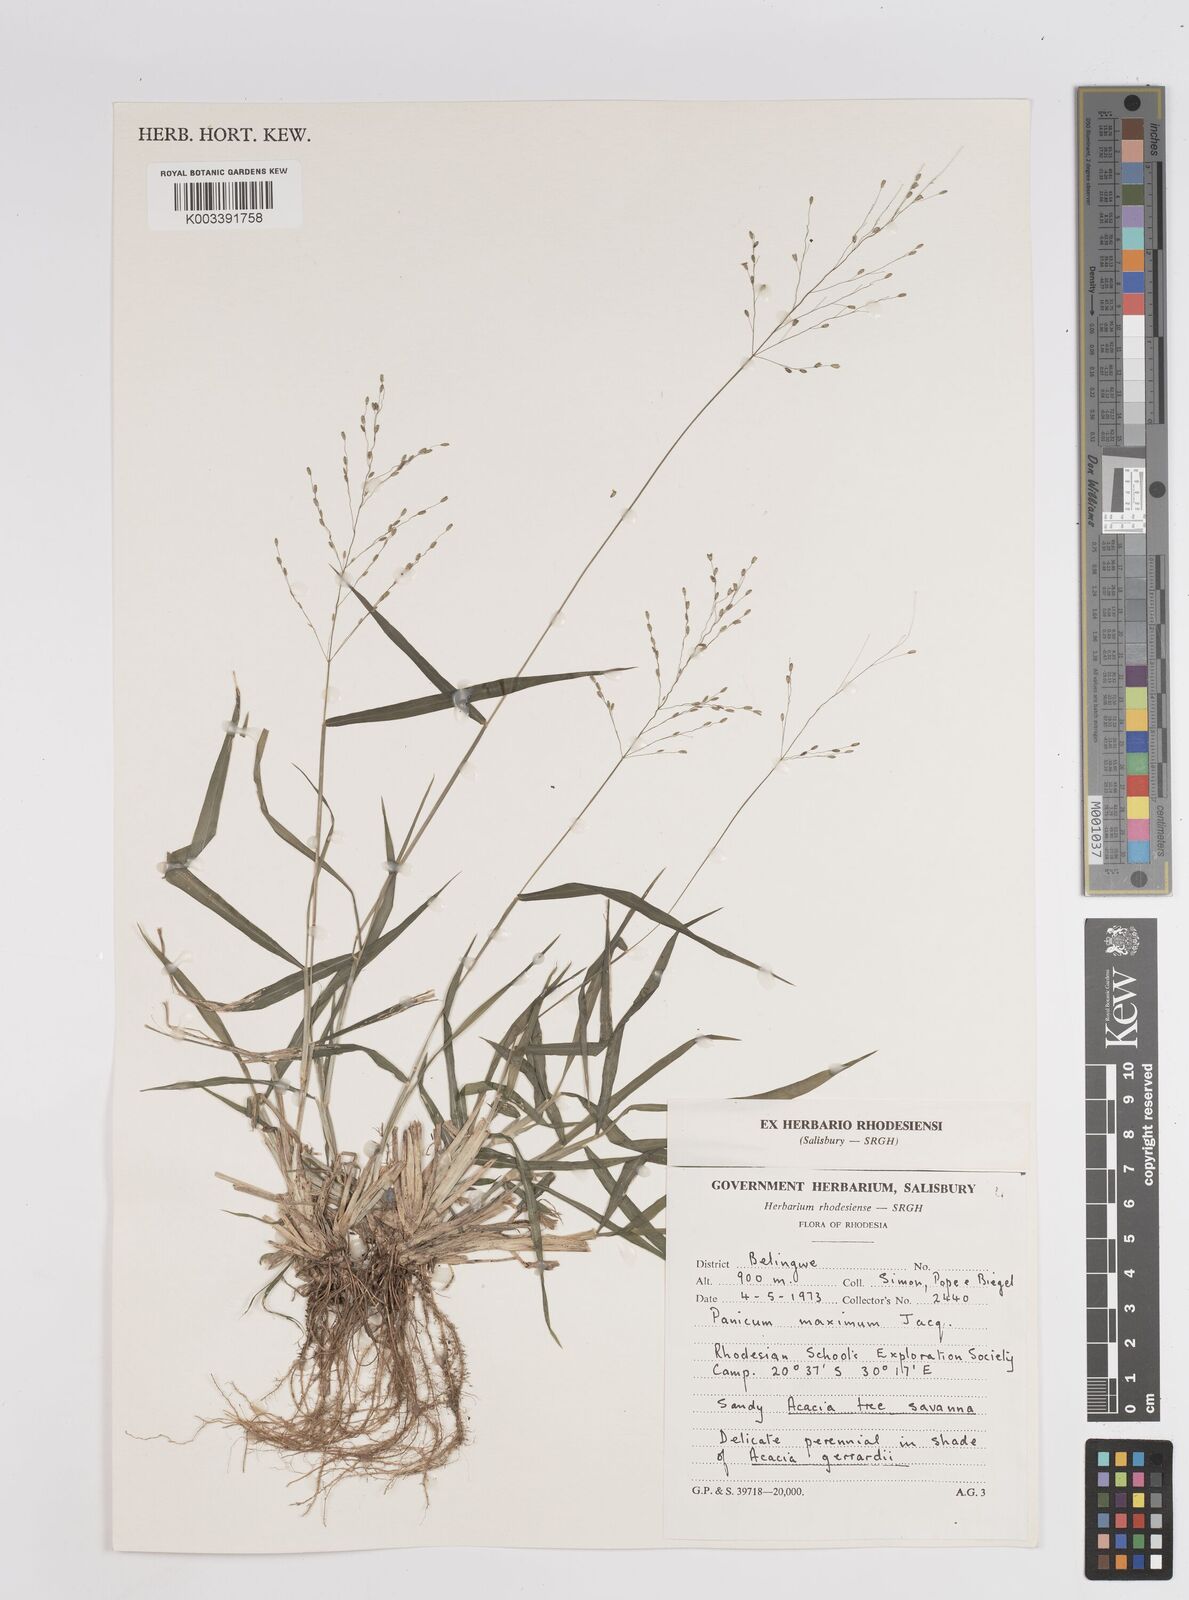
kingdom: Plantae
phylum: Tracheophyta
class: Liliopsida
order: Poales
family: Poaceae
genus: Megathyrsus
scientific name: Megathyrsus maximus
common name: Guineagrass
